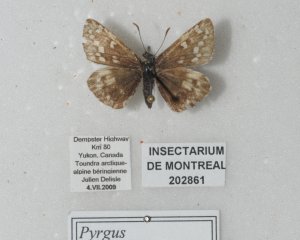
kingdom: Animalia
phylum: Arthropoda
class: Insecta
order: Lepidoptera
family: Hesperiidae
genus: Pyrgus
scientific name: Pyrgus centaureae
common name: Grizzled Skipper
